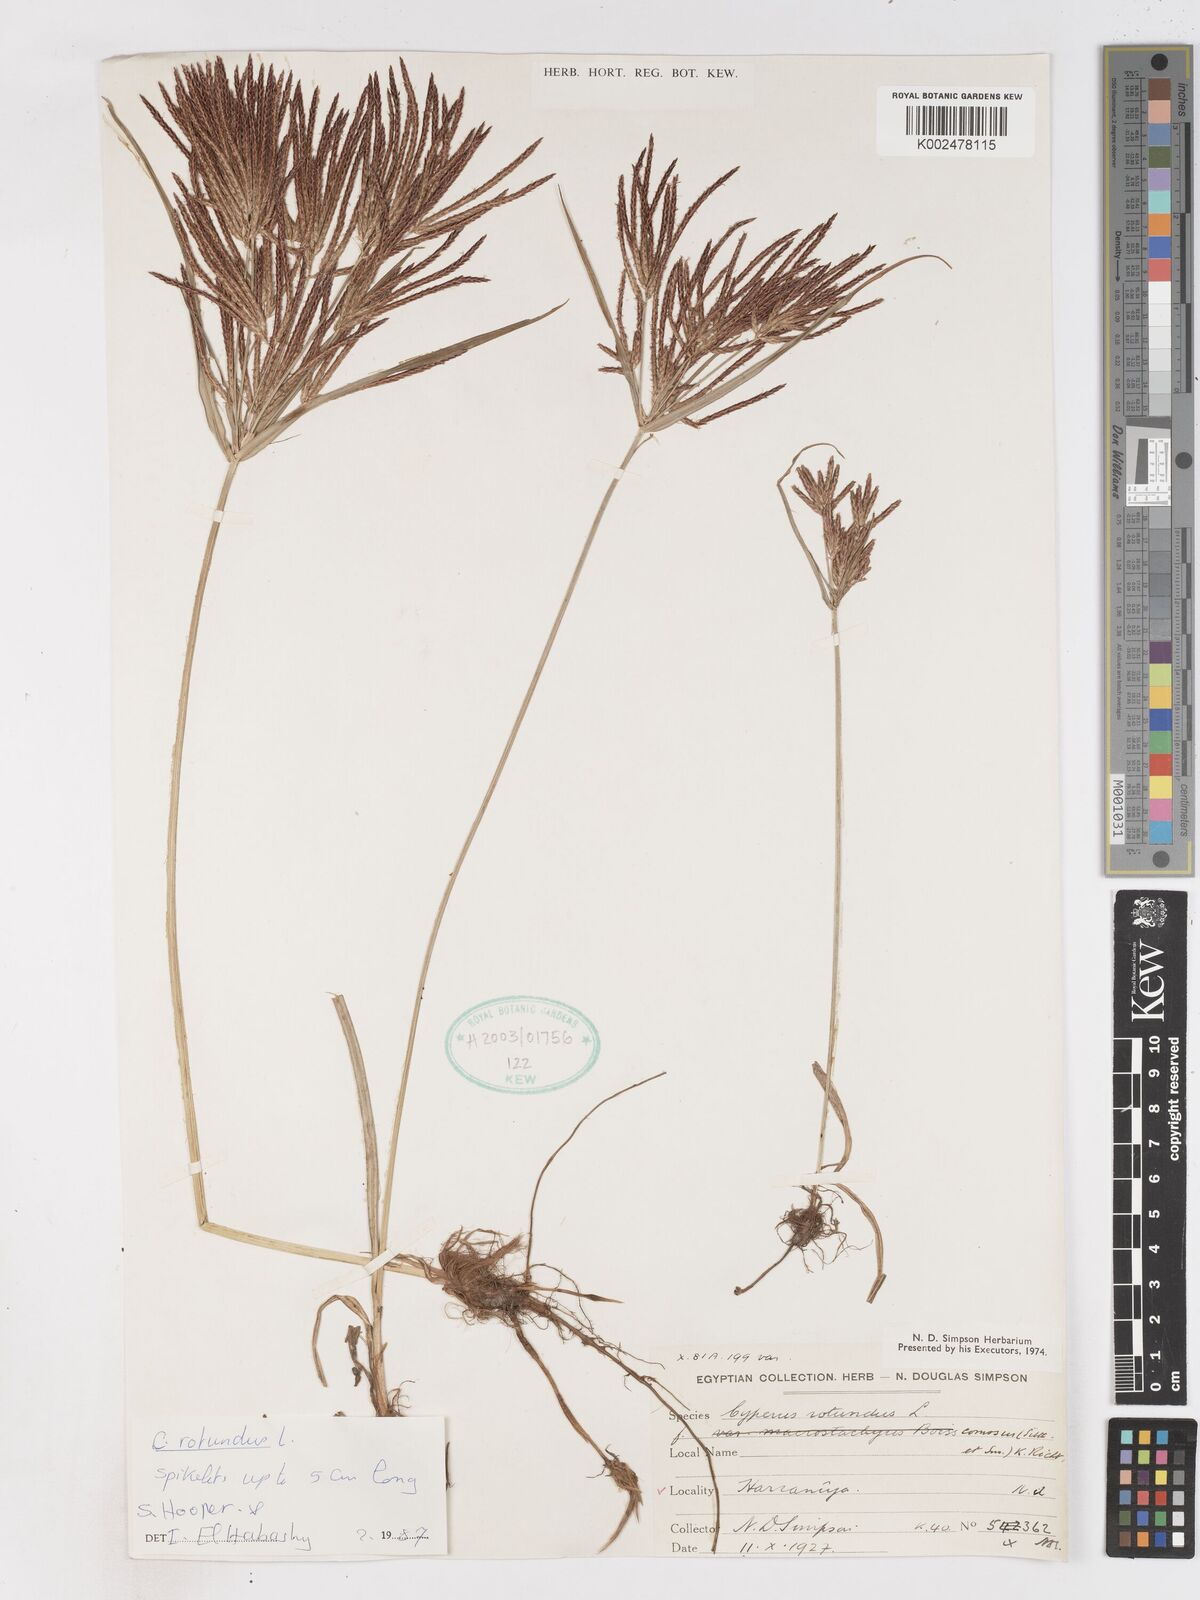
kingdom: Plantae
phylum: Tracheophyta
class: Liliopsida
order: Poales
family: Cyperaceae
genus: Cyperus
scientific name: Cyperus rotundus
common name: Nutgrass
